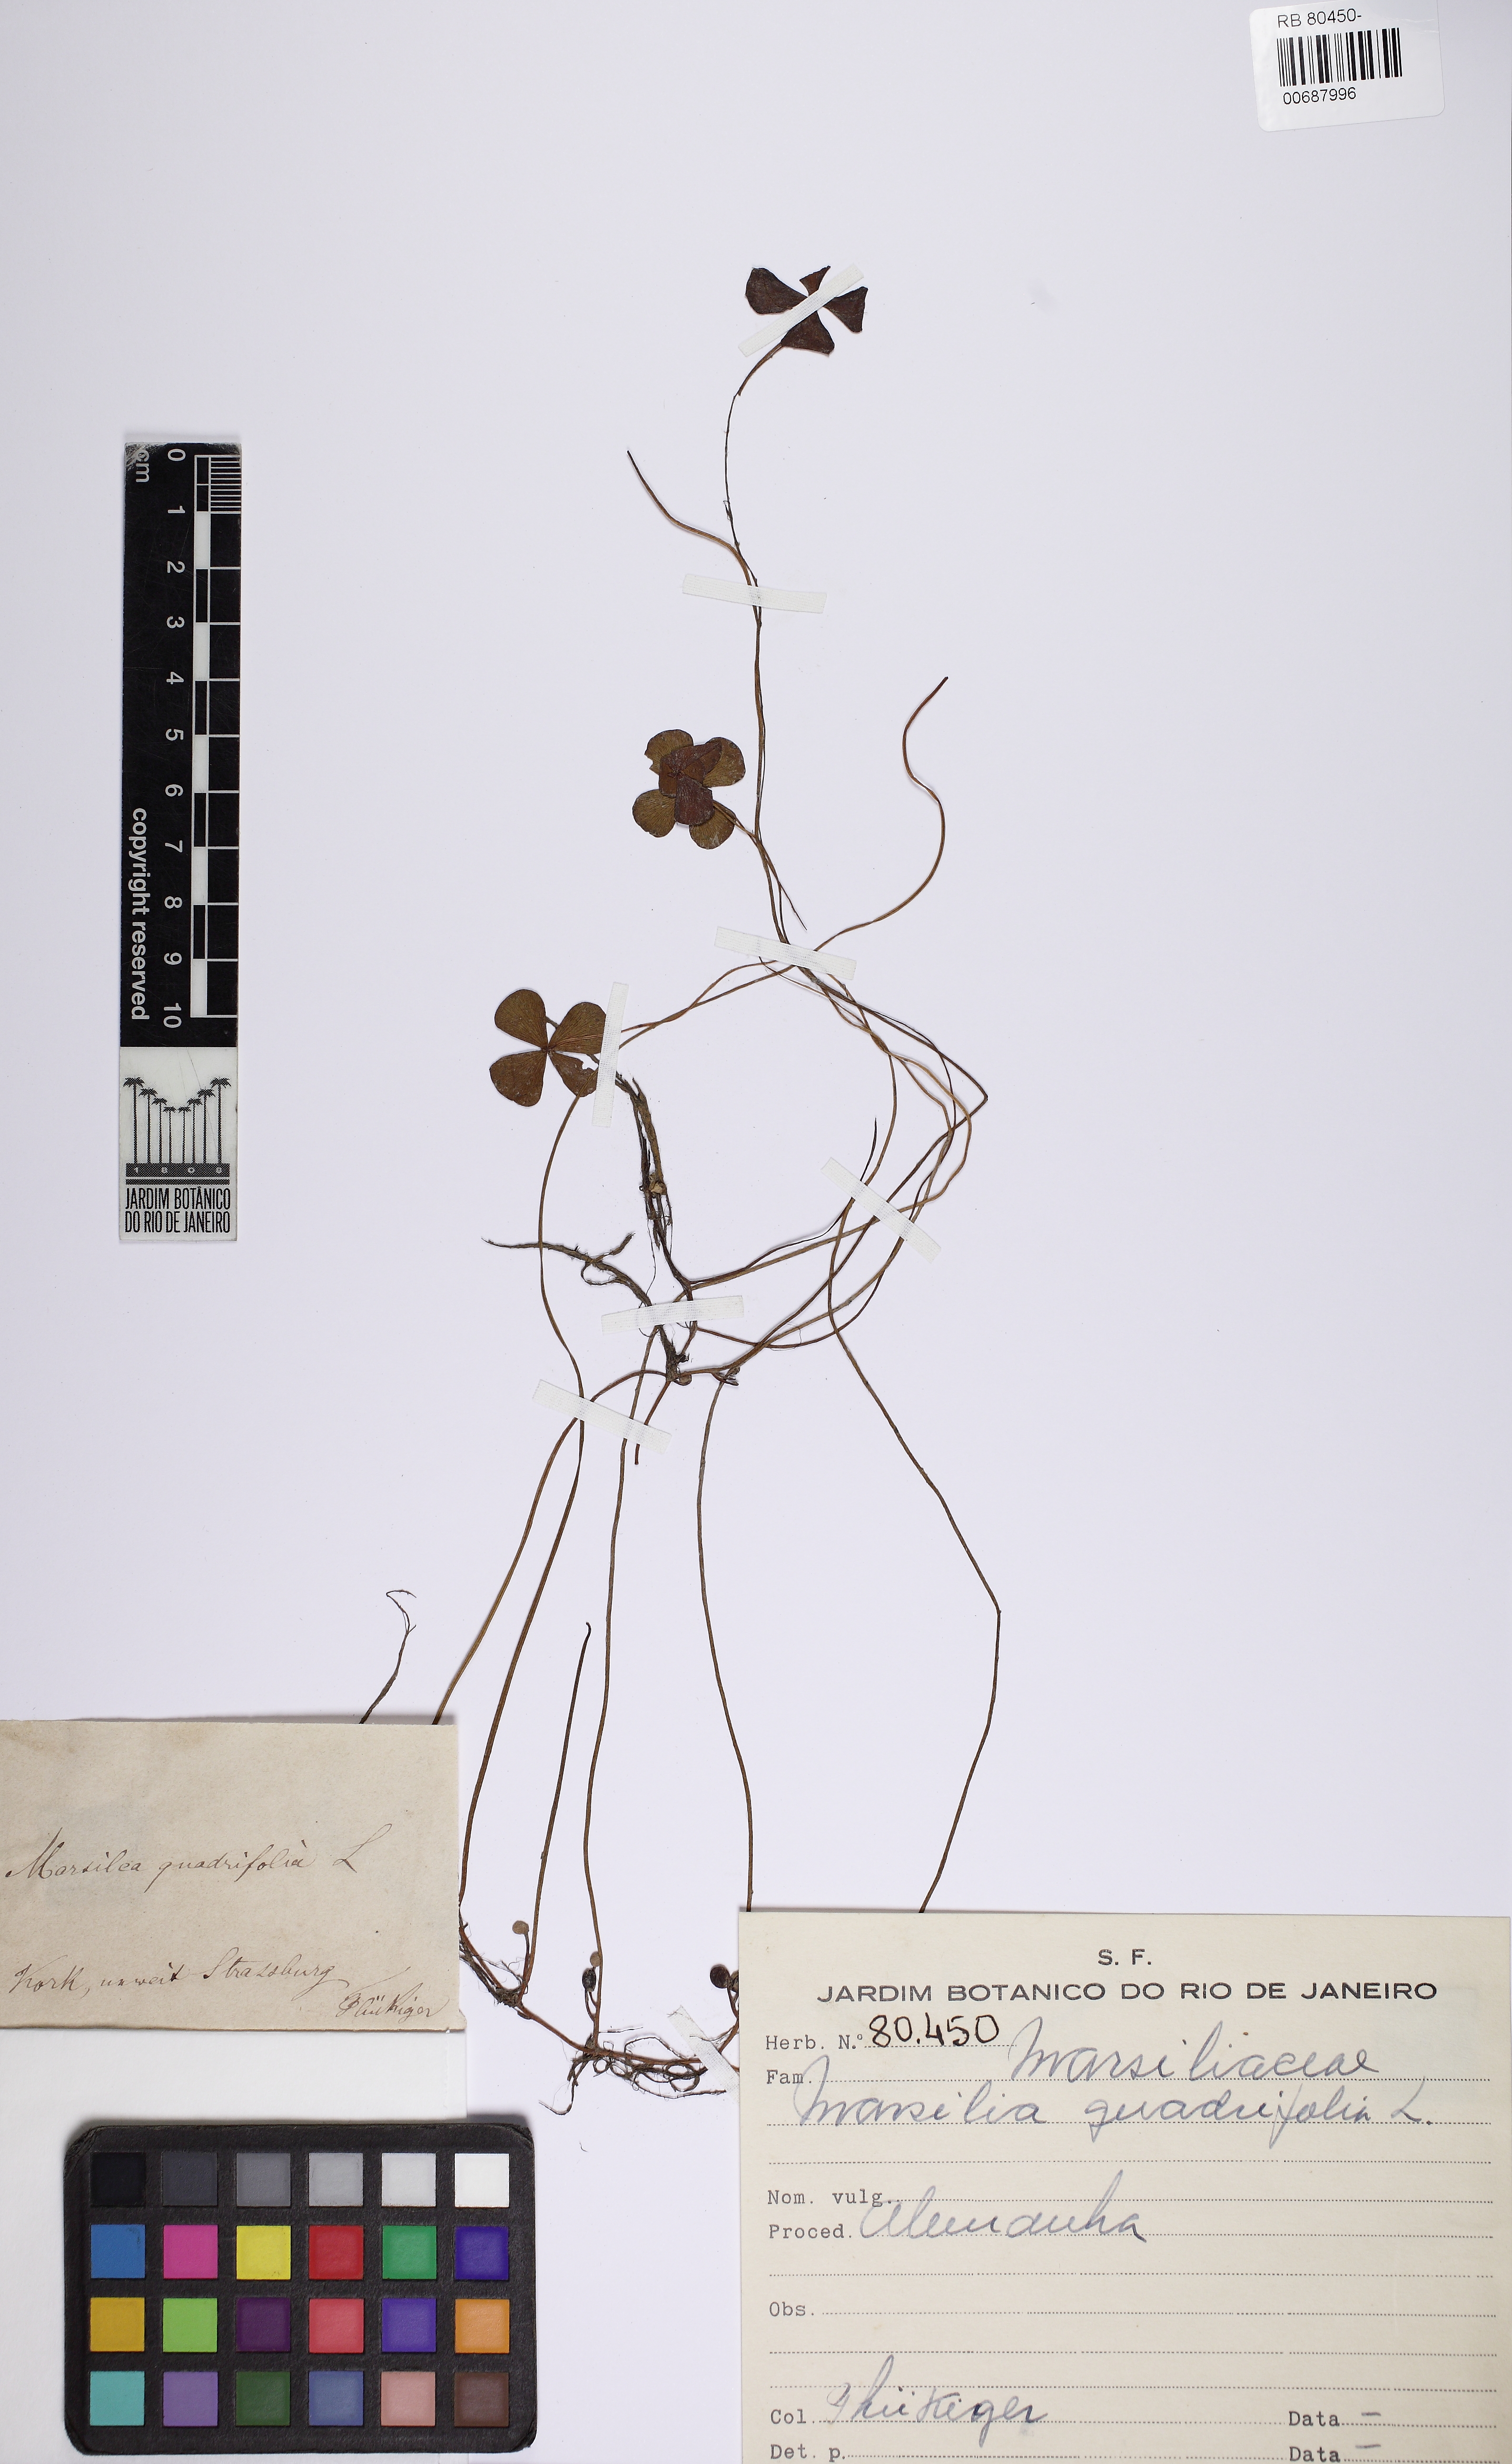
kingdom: Plantae
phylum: Tracheophyta
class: Polypodiopsida
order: Salviniales
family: Marsileaceae
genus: Marsilea
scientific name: Marsilea quadrifolia
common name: Water shamrock
